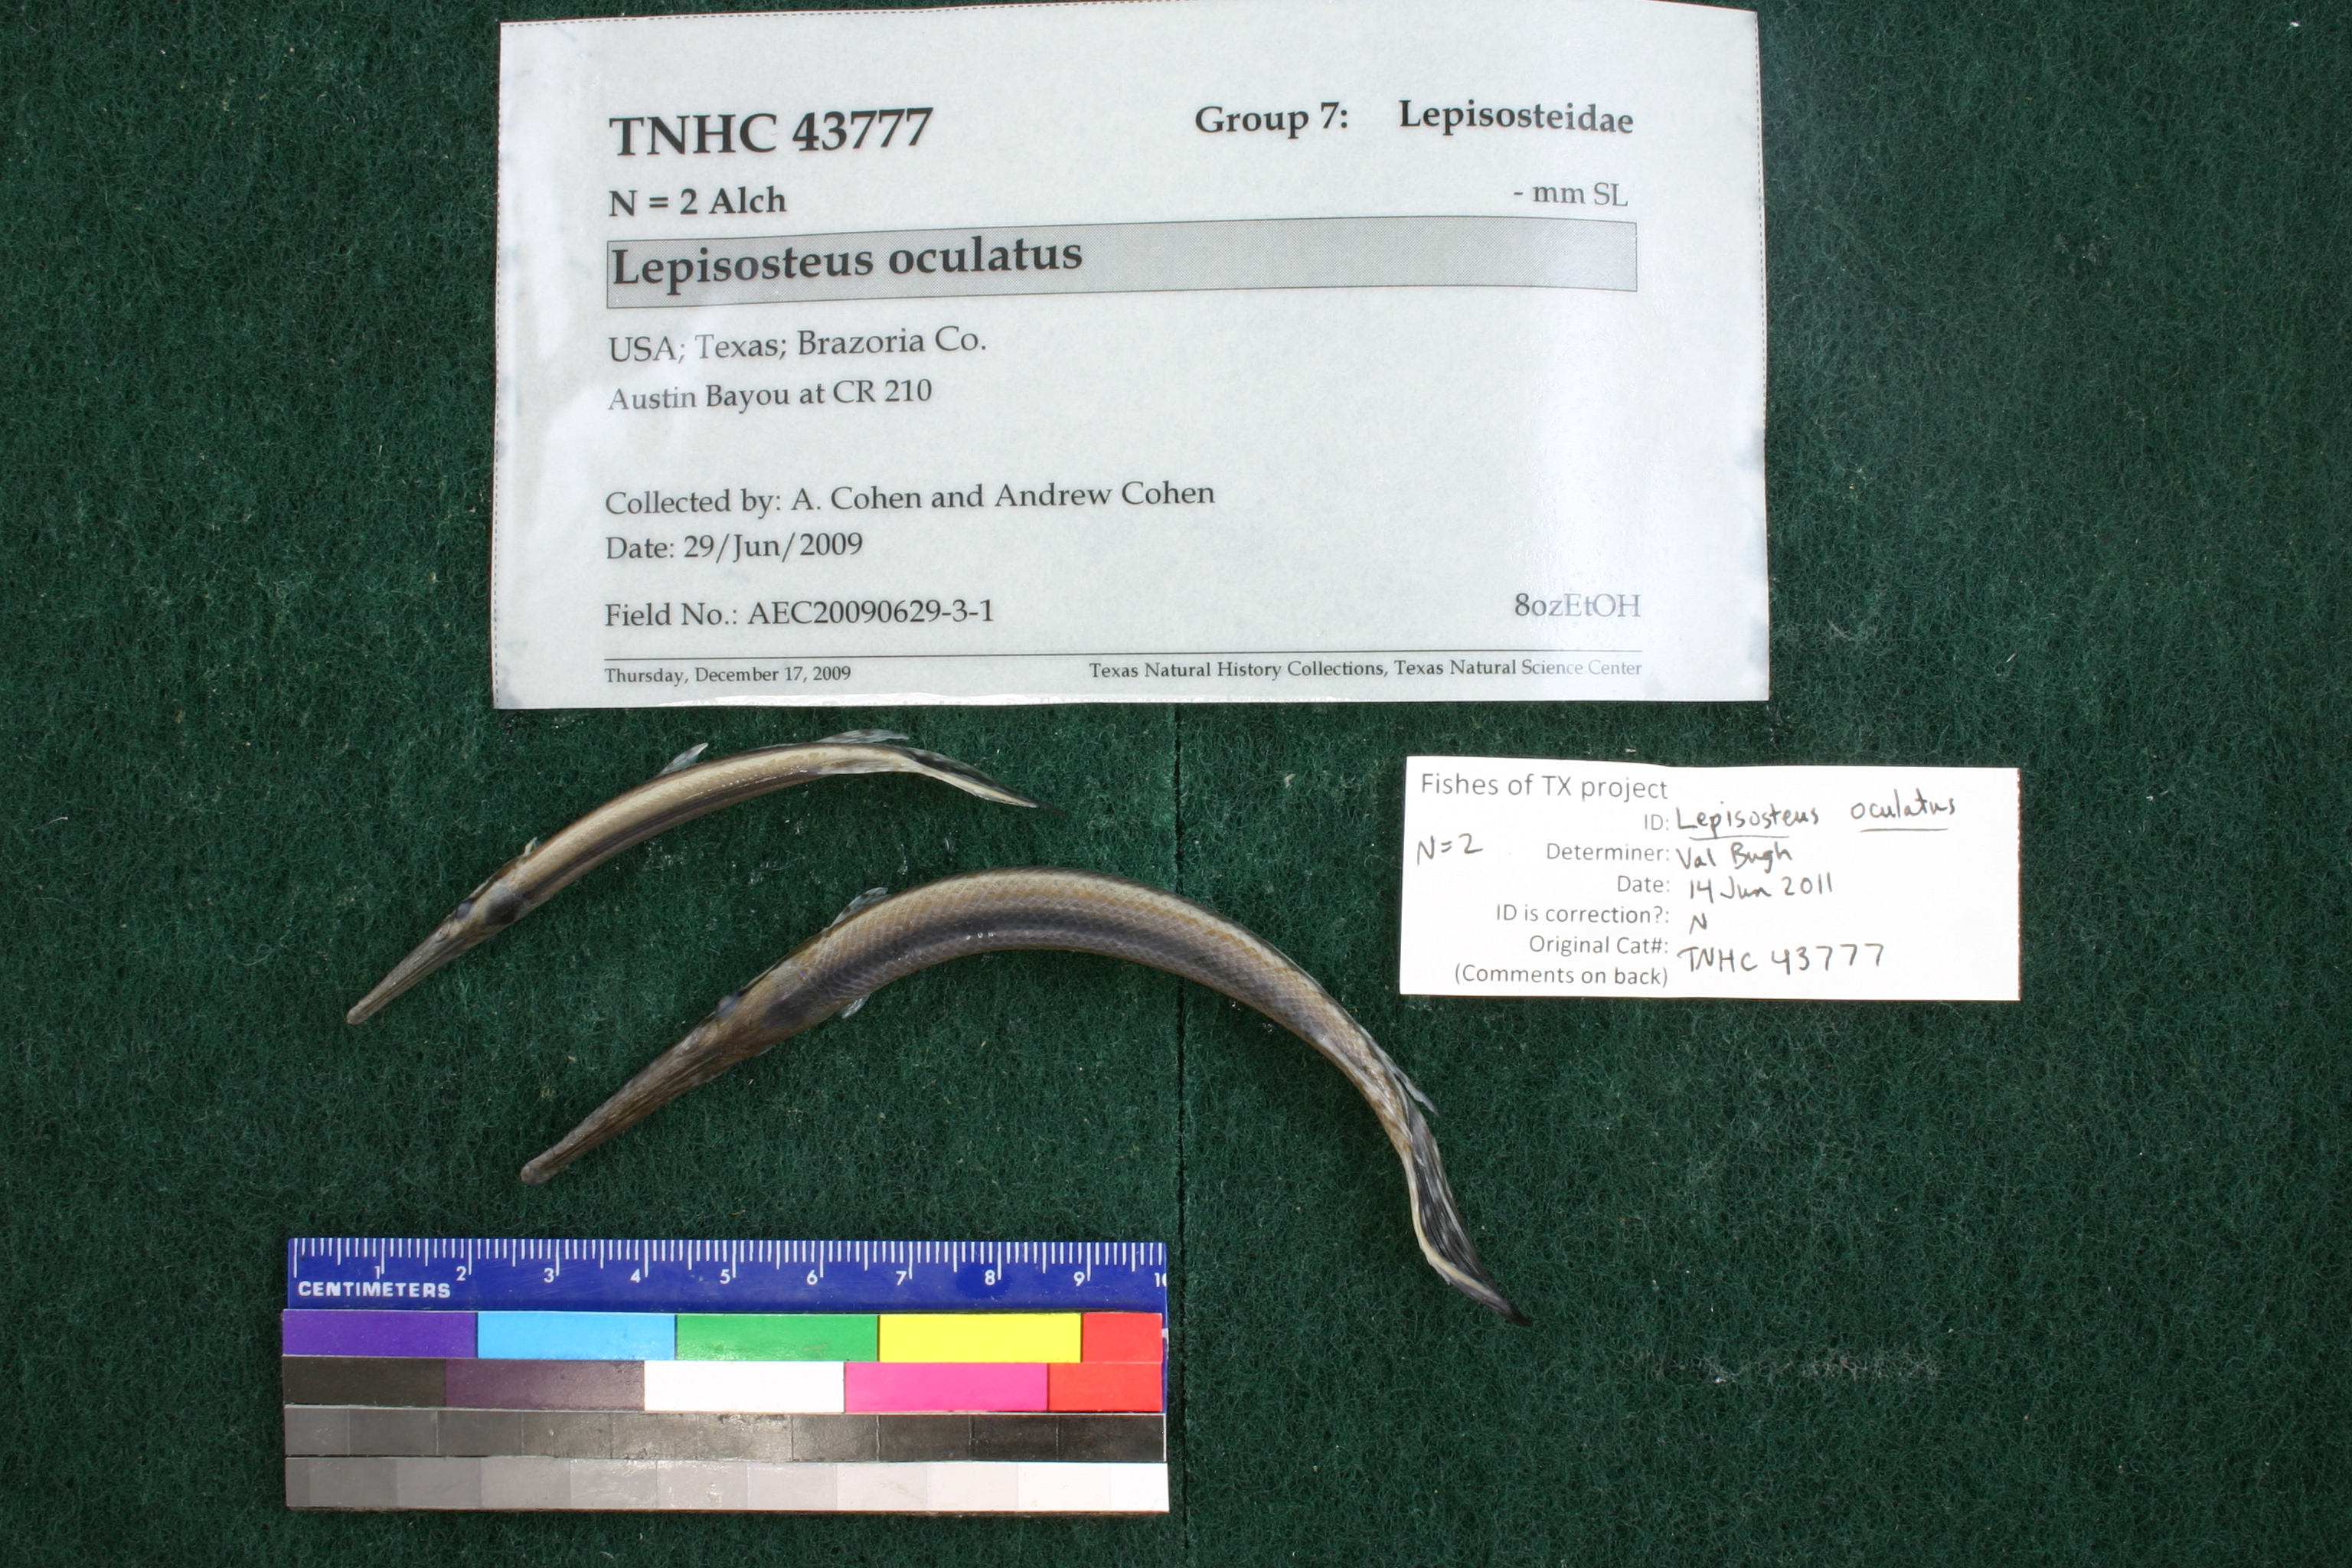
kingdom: Animalia
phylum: Chordata
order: Lepisosteiformes
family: Lepisosteidae
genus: Lepisosteus
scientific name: Lepisosteus oculatus
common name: Spotted gar
